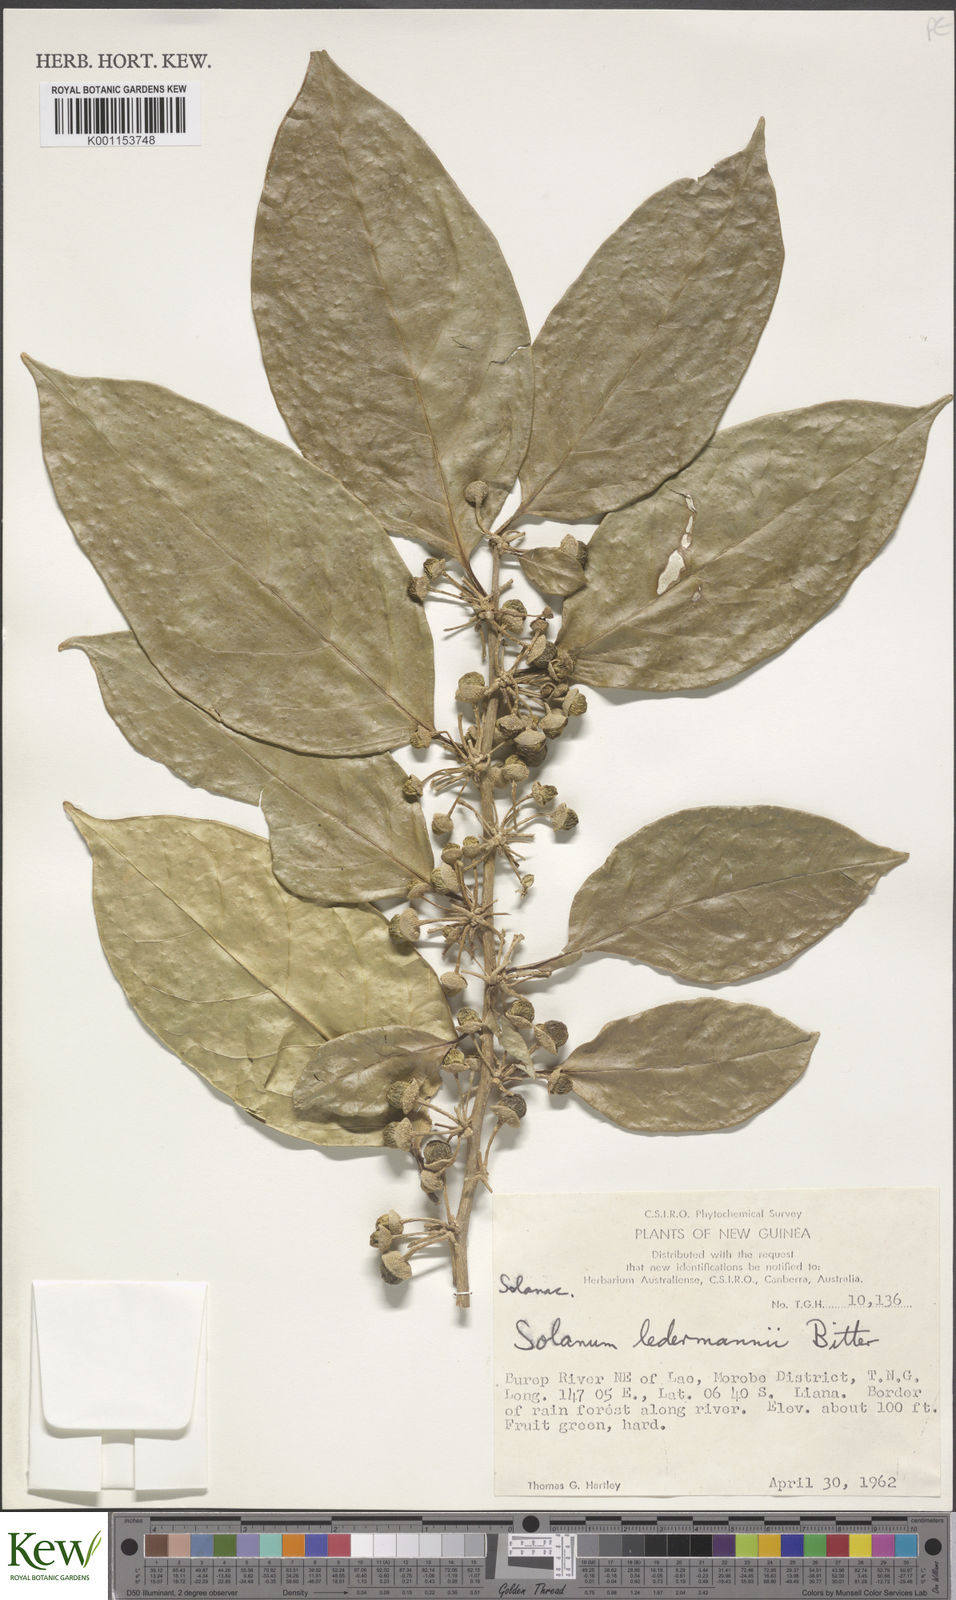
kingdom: Plantae
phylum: Tracheophyta
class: Magnoliopsida
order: Solanales
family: Solanaceae
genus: Lycianthes
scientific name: Lycianthes oliveriana
